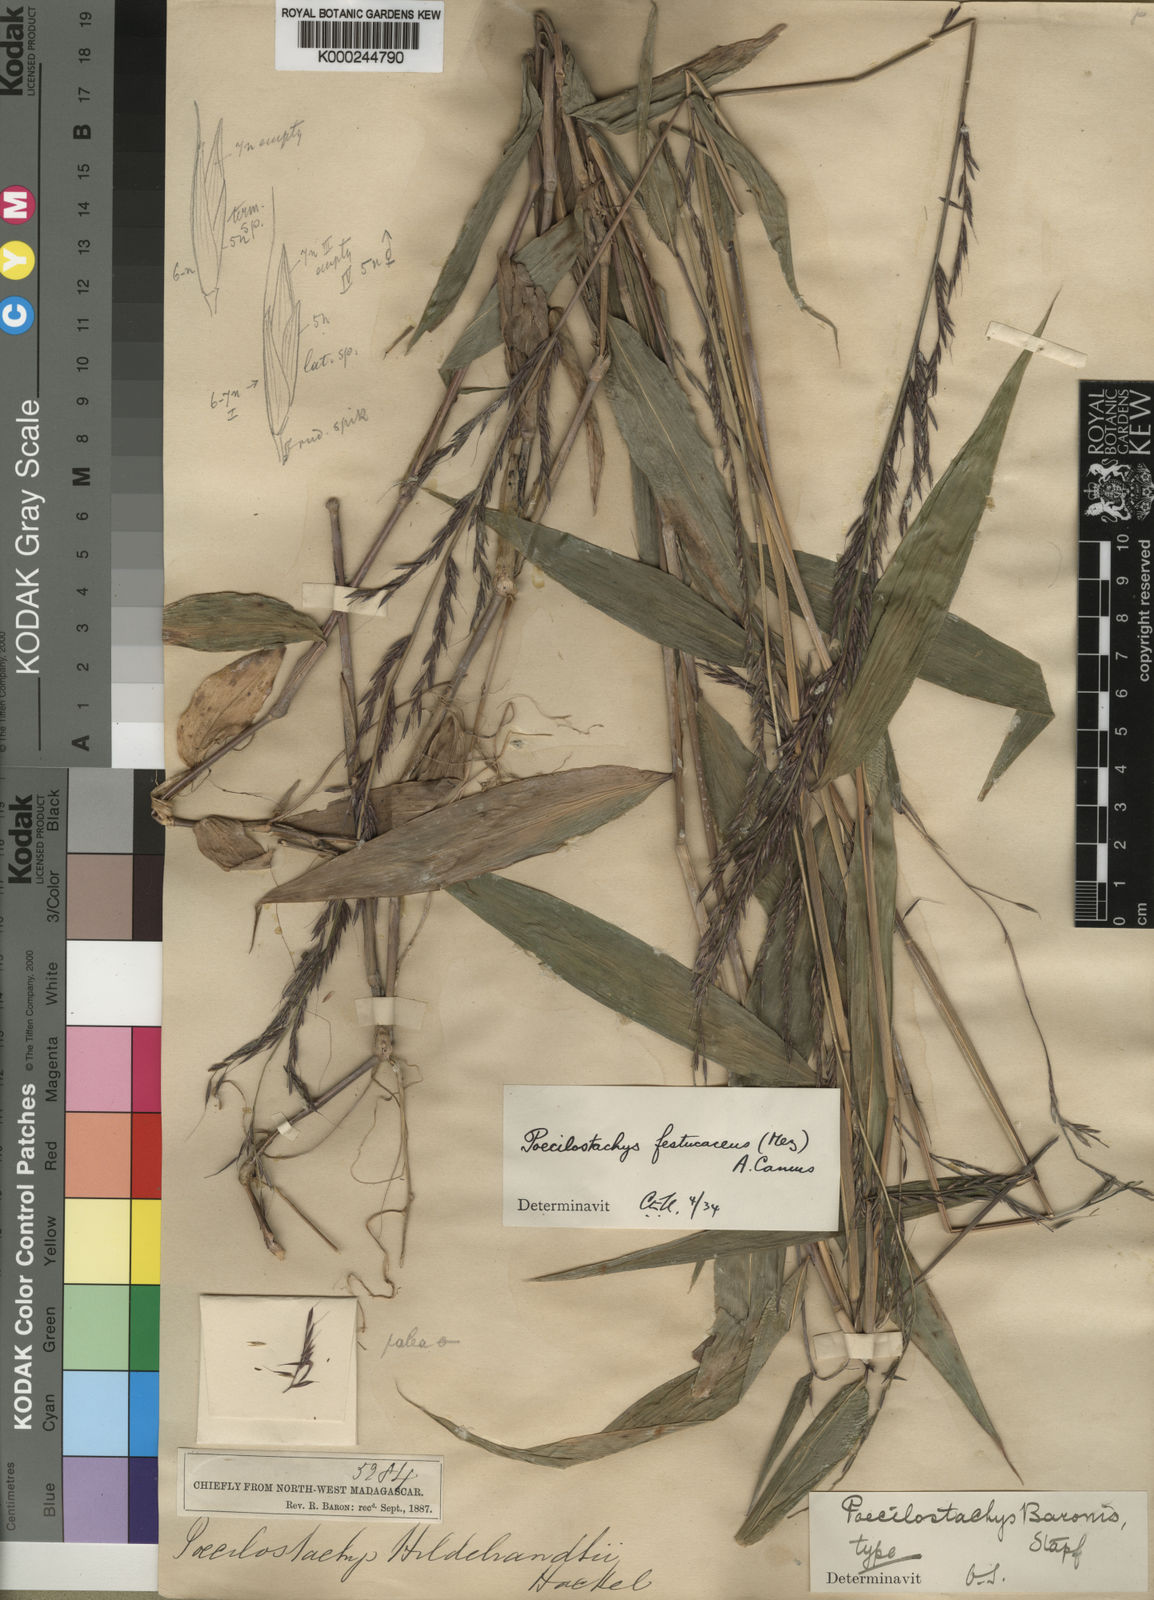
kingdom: Plantae
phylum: Tracheophyta
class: Liliopsida
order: Poales
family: Poaceae
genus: Poecilostachys
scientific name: Poecilostachys baronis
